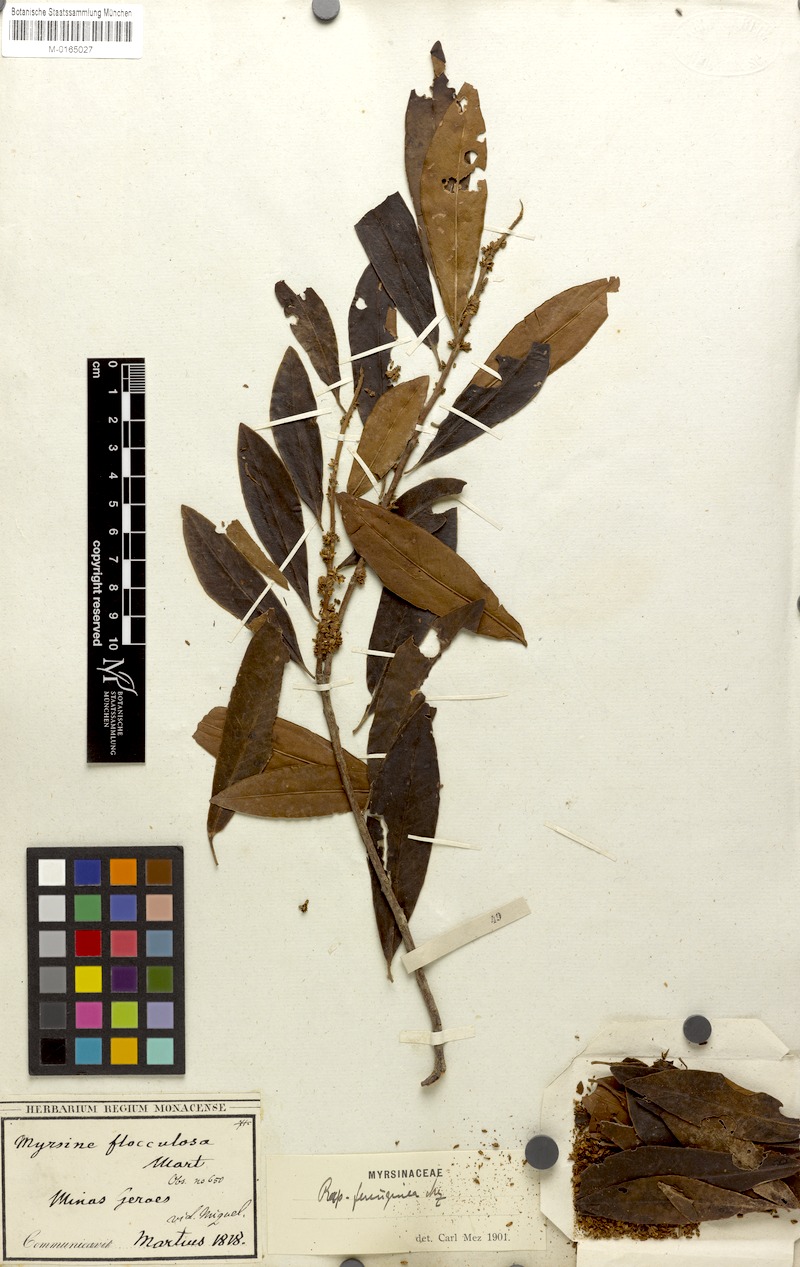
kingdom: Plantae
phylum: Tracheophyta
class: Magnoliopsida
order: Ericales
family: Primulaceae
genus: Myrsine
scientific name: Myrsine coriacea
